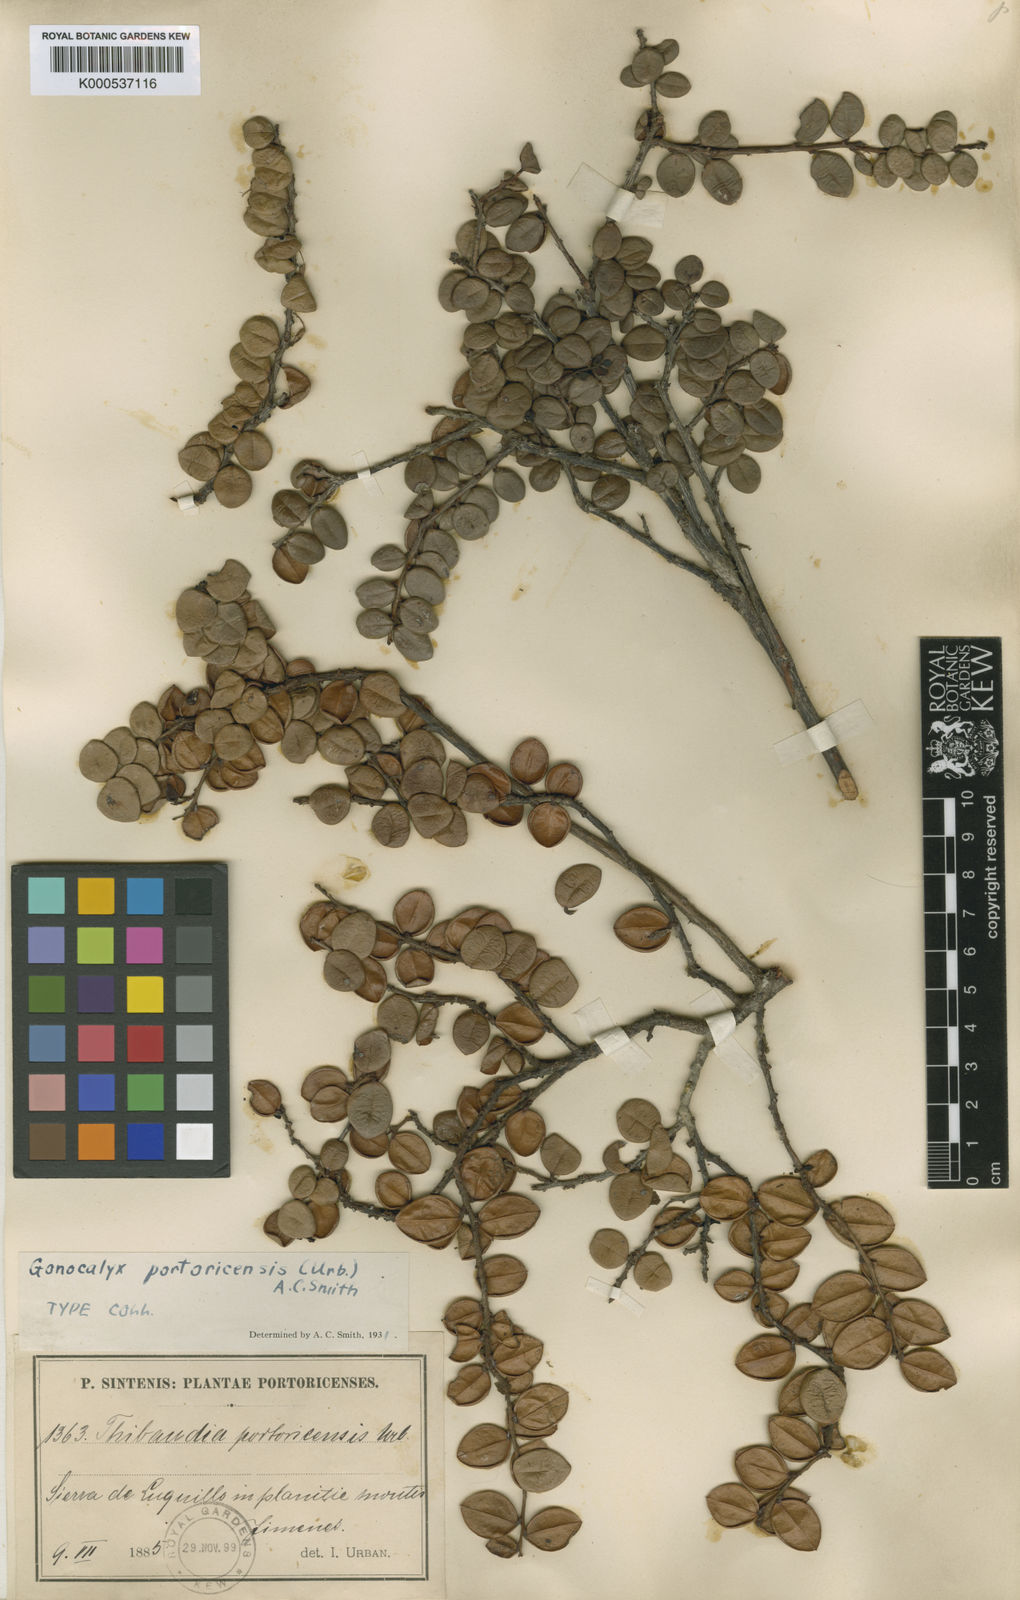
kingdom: Plantae
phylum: Tracheophyta
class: Magnoliopsida
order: Ericales
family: Ericaceae
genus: Gonocalyx
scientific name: Gonocalyx portoricensis
